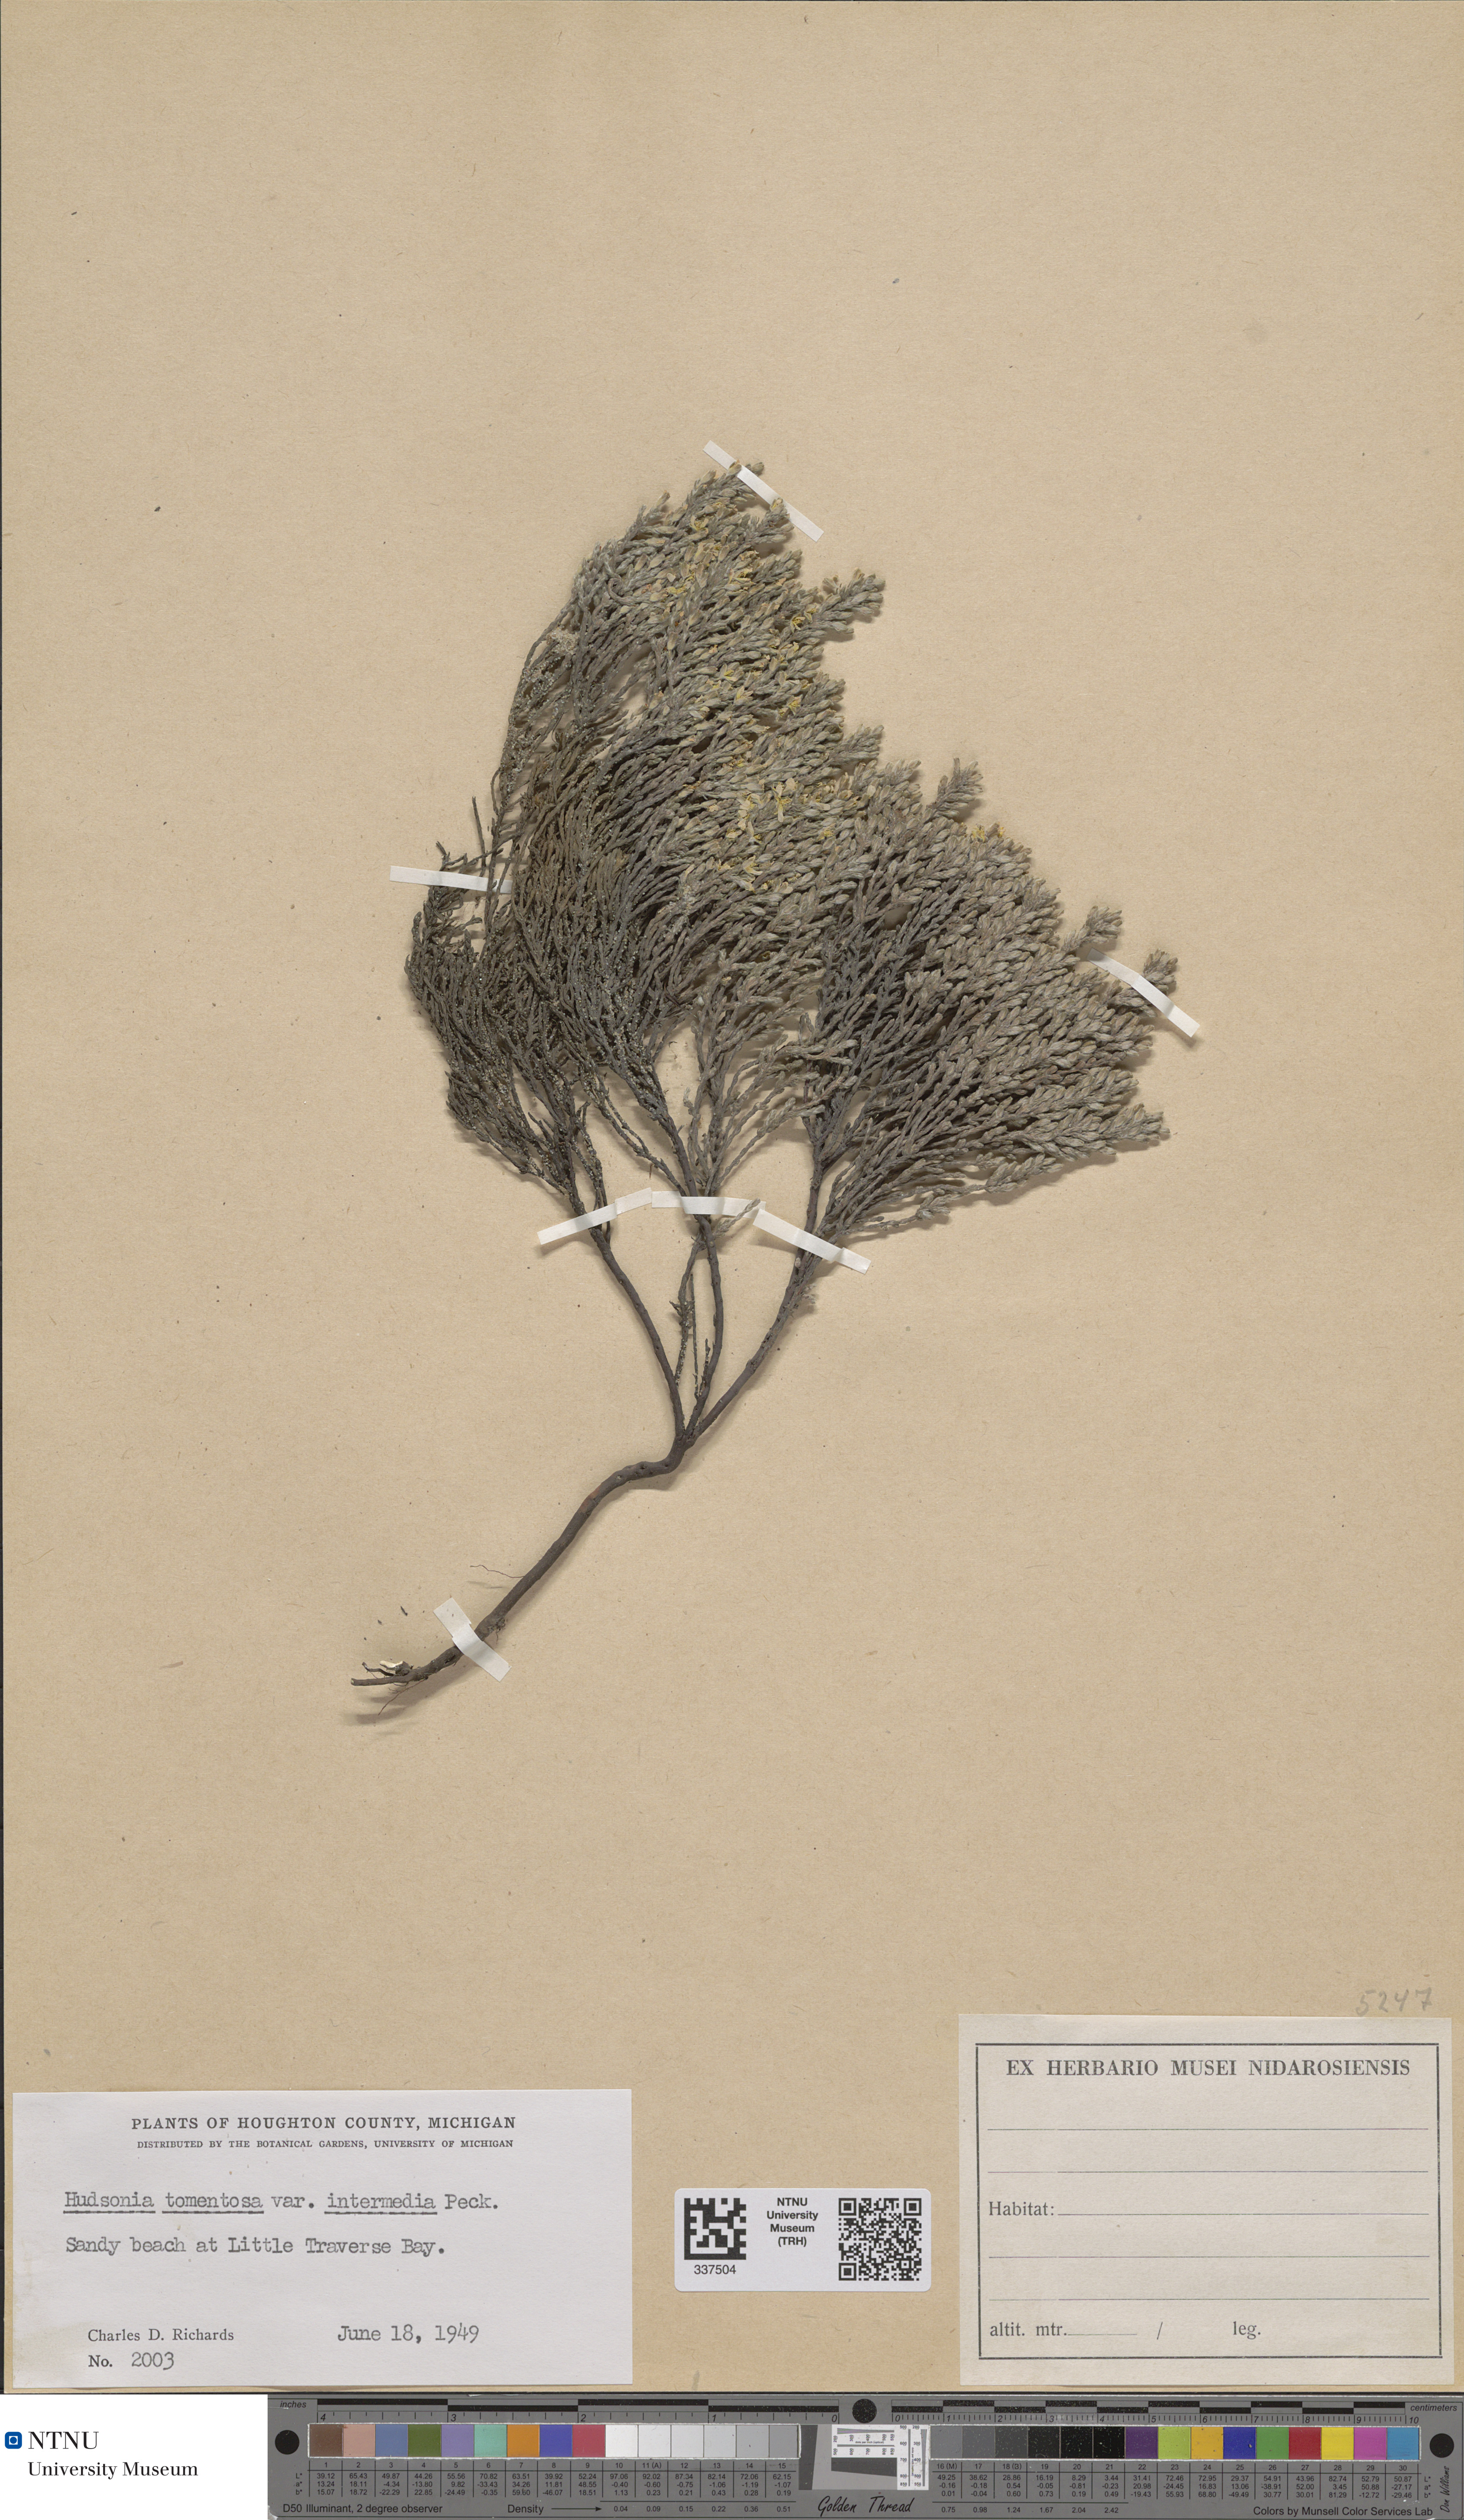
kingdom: Plantae
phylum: Tracheophyta
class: Magnoliopsida
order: Malvales
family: Cistaceae
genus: Hudsonia
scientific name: Hudsonia tomentosa
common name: Beach-heath
